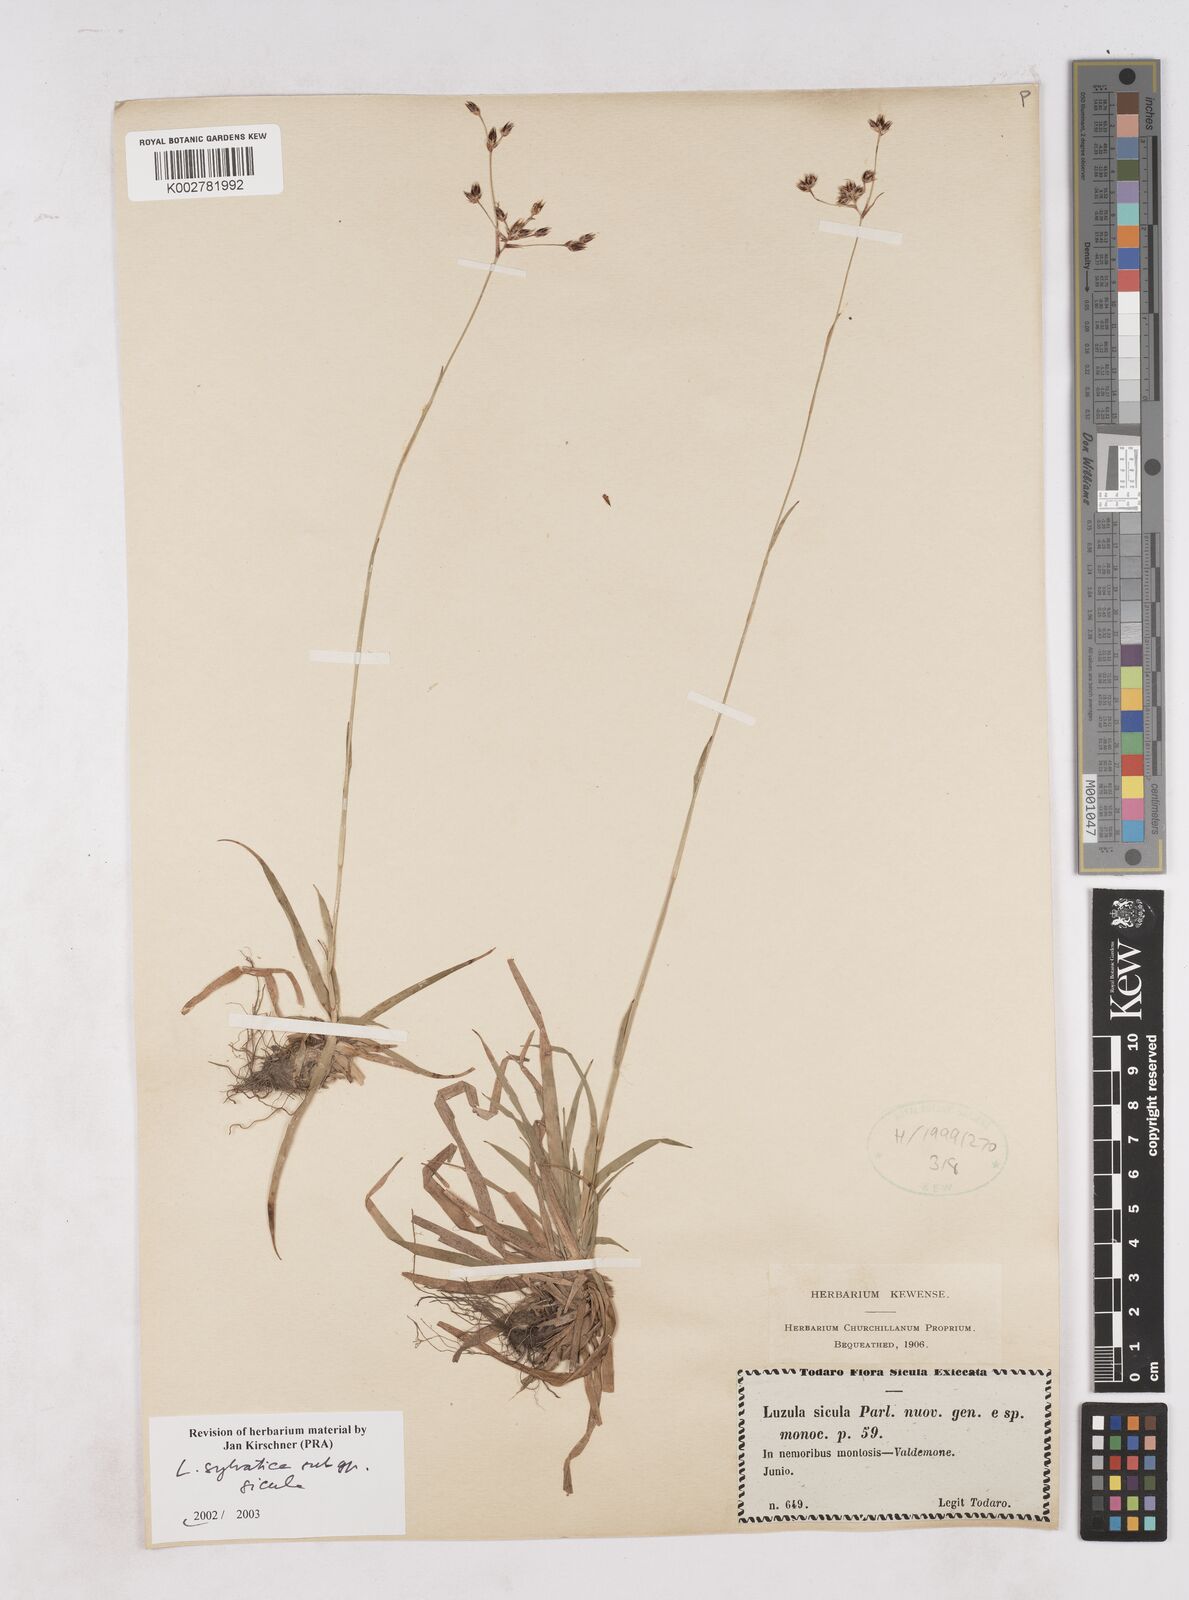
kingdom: Plantae
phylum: Tracheophyta
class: Liliopsida
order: Poales
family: Juncaceae
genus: Luzula
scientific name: Luzula sylvatica
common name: Great wood-rush
